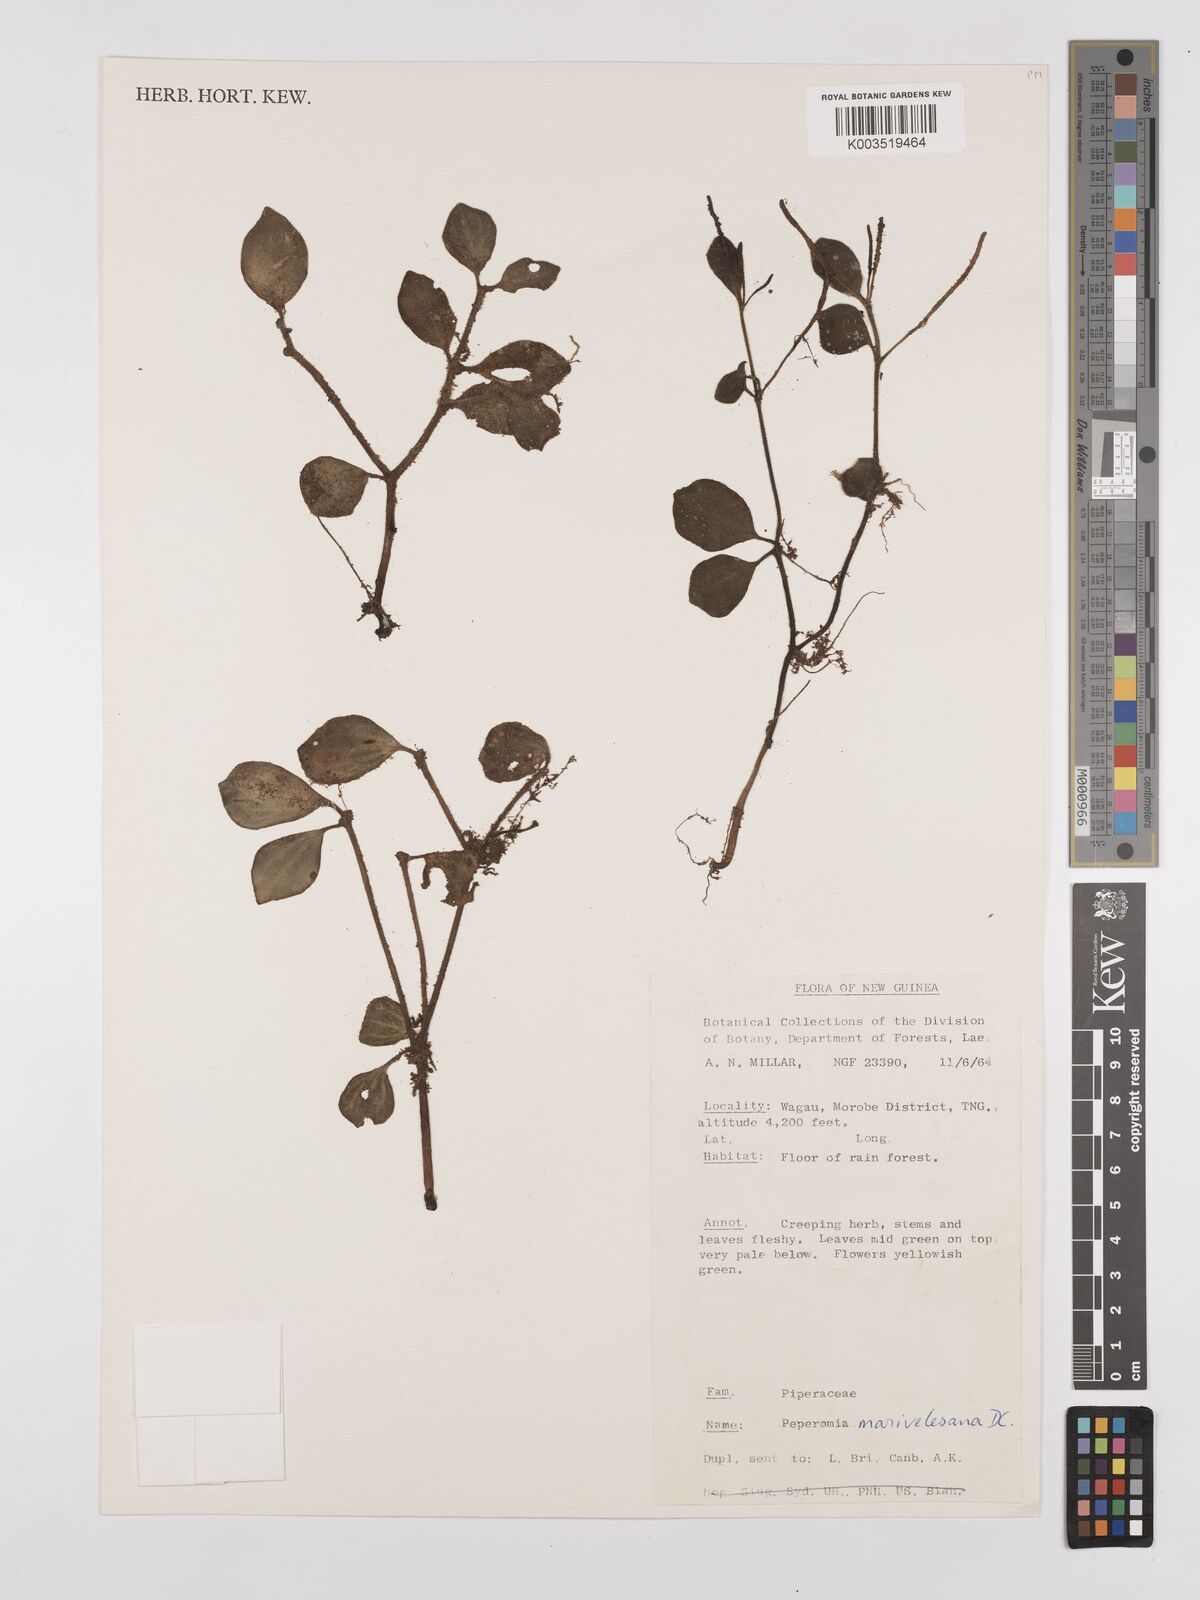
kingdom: Plantae
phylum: Tracheophyta
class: Magnoliopsida
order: Piperales
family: Piperaceae
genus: Peperomia
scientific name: Peperomia marivelesana
